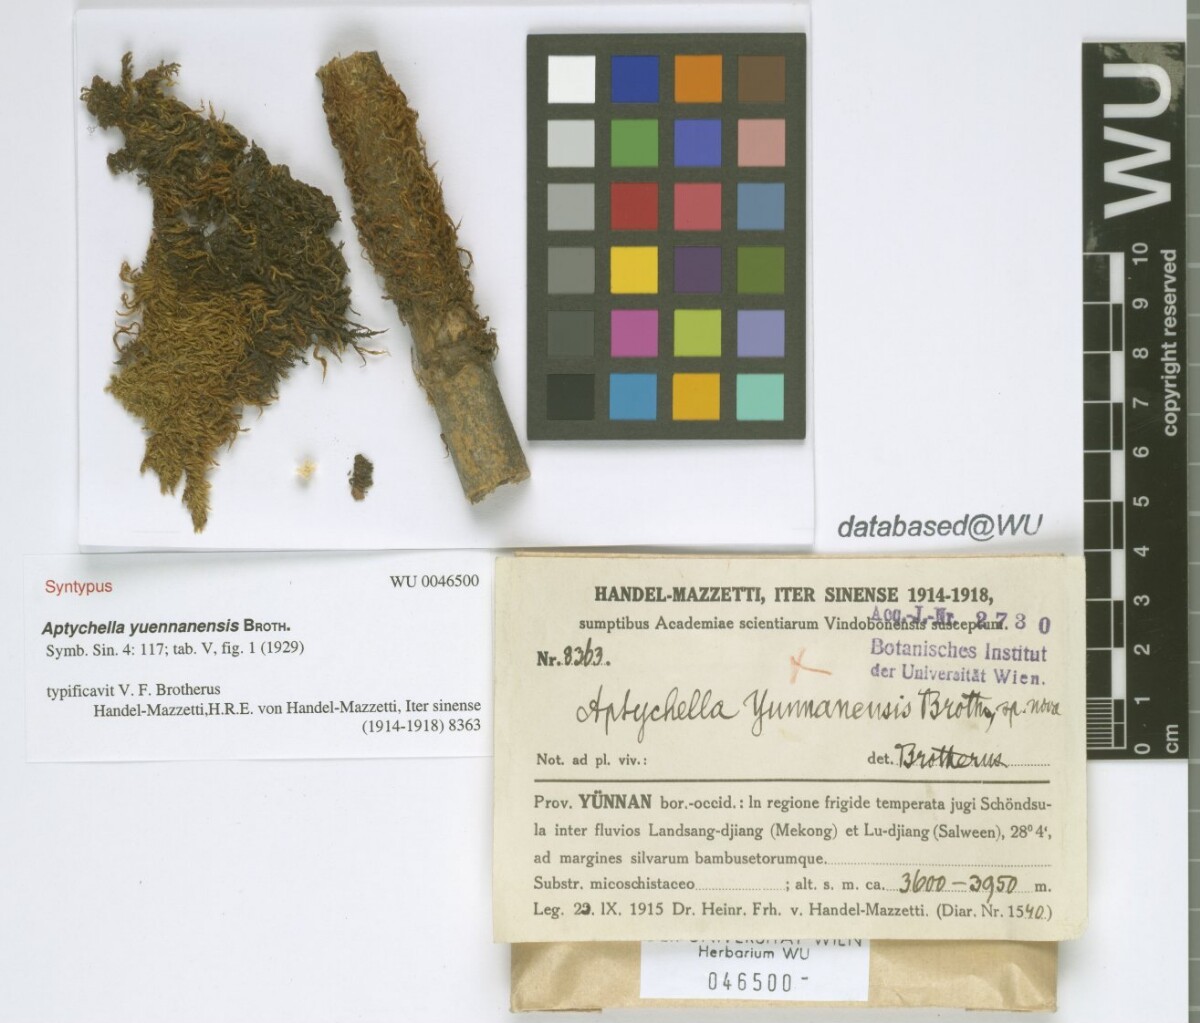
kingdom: Plantae
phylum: Bryophyta
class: Bryopsida
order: Hypnales
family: Pylaisiadelphaceae
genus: Aptychella
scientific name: Aptychella planula
